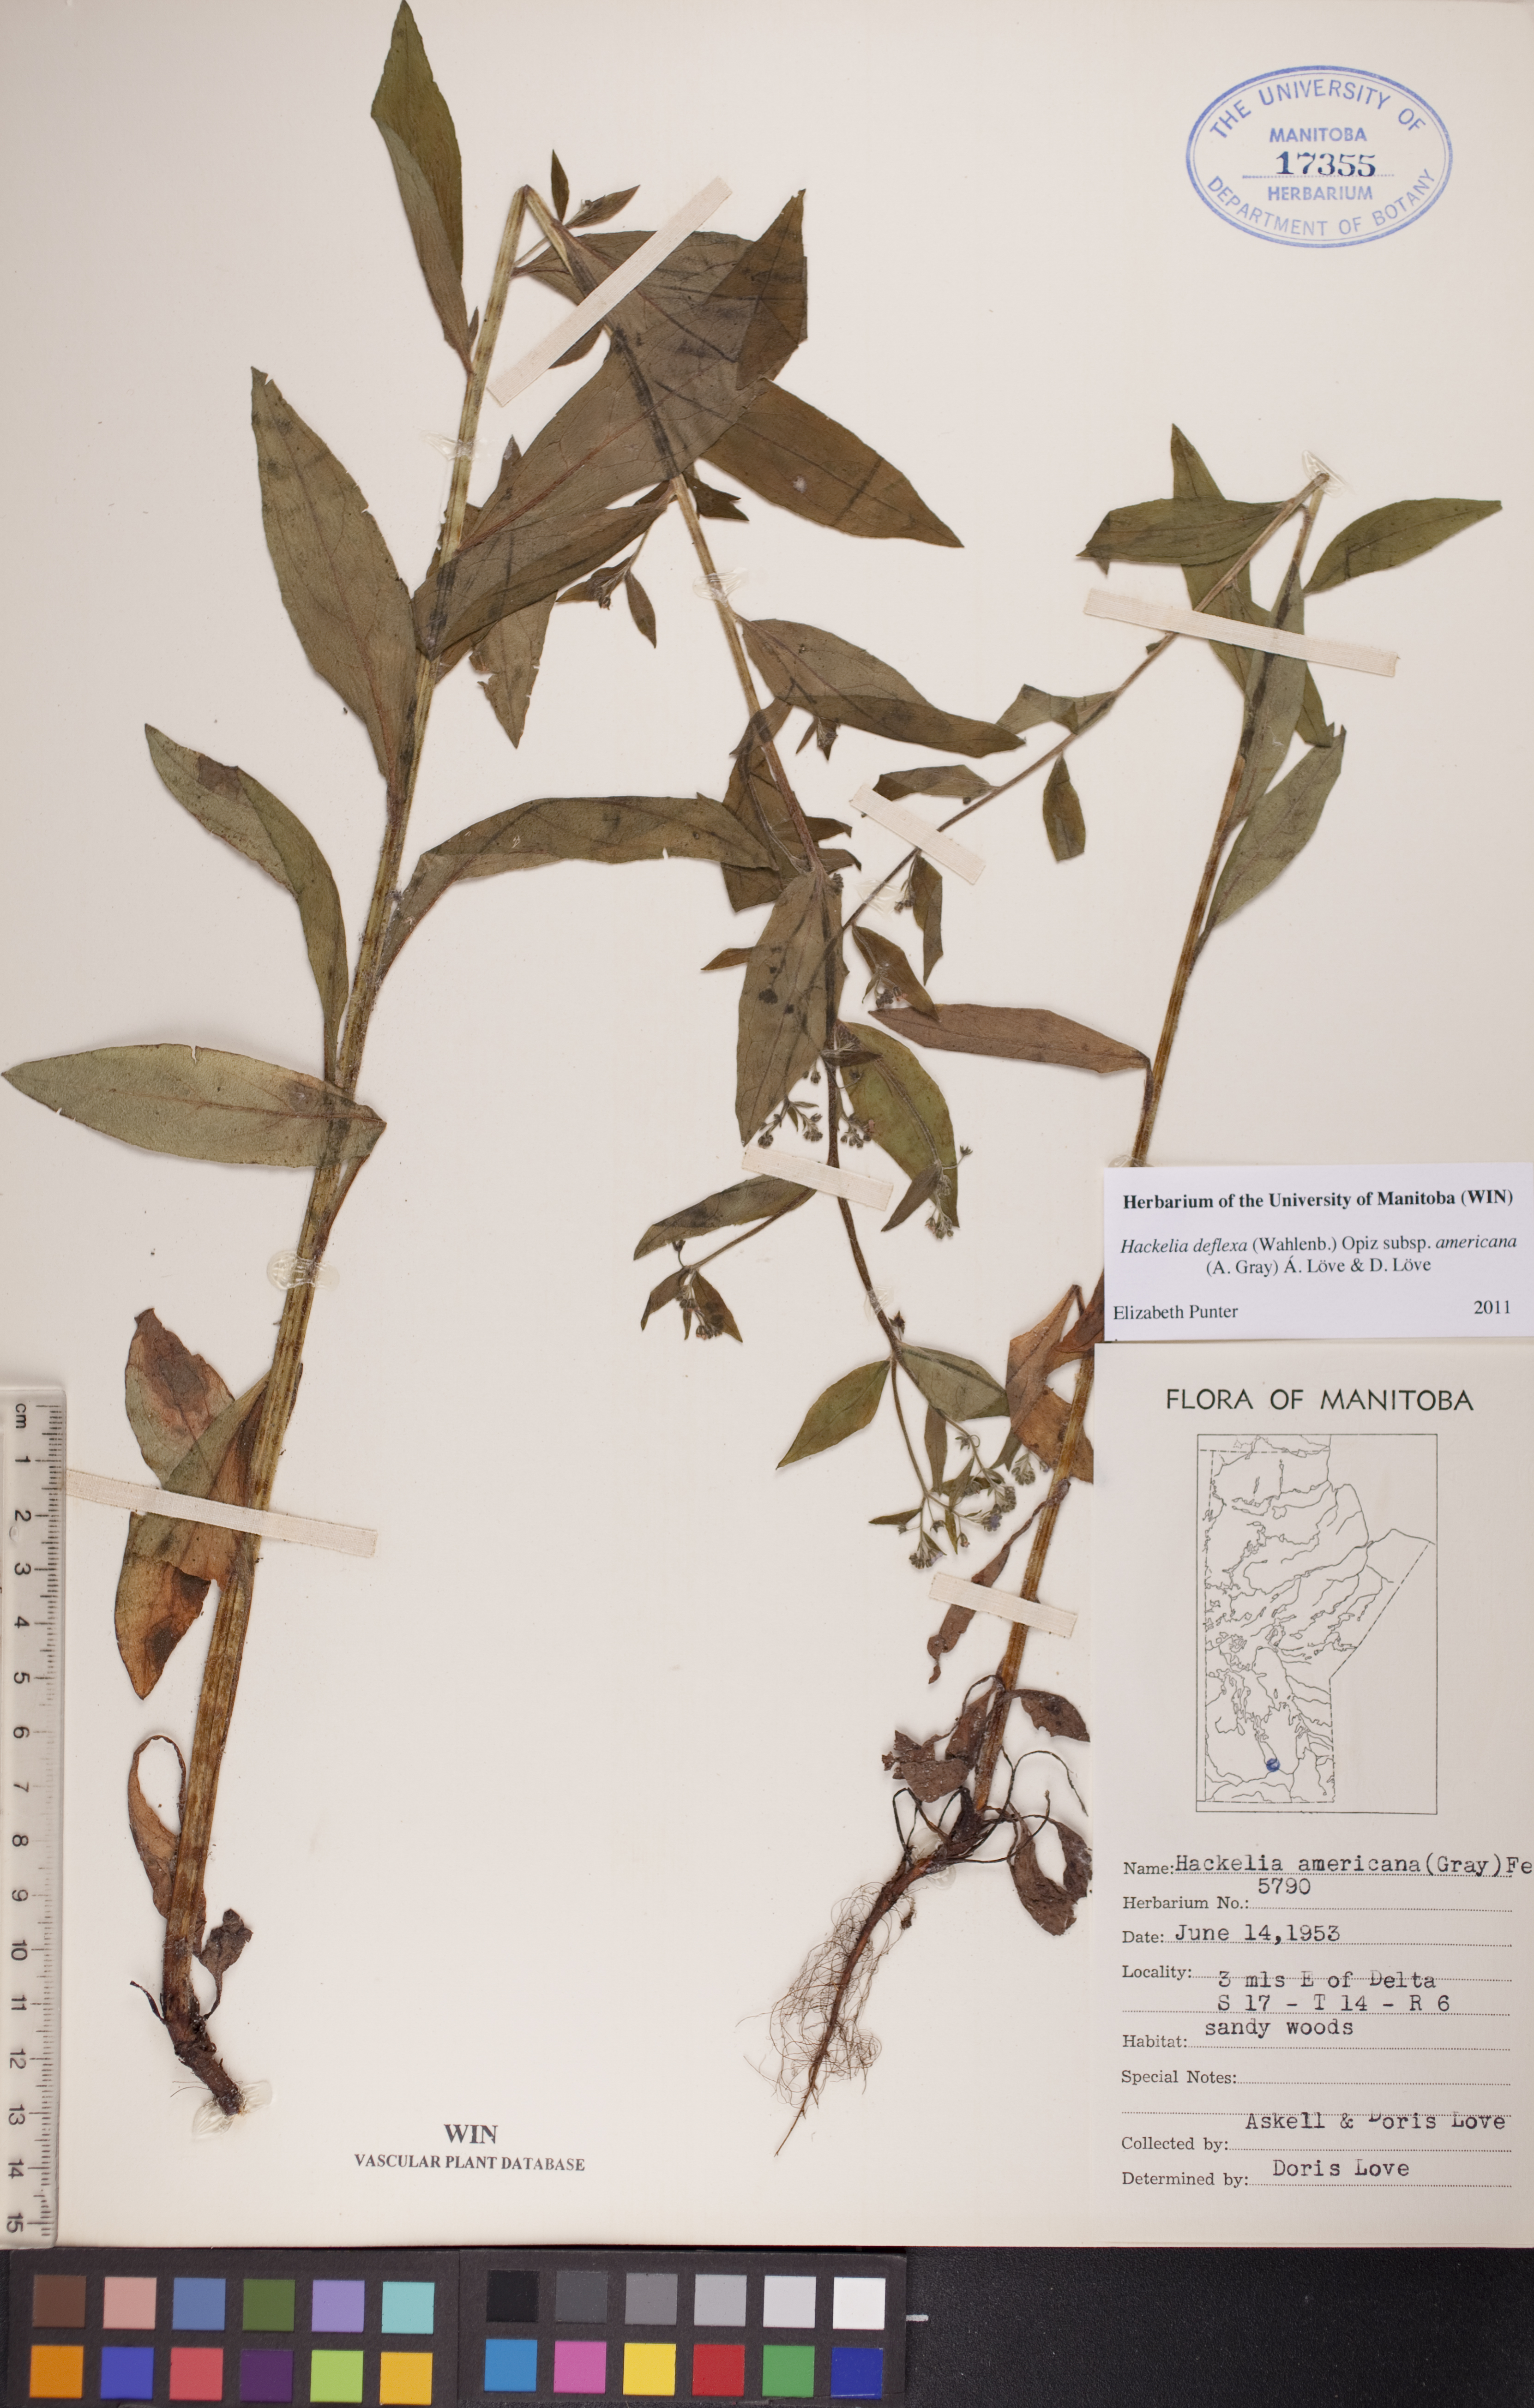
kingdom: Plantae
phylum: Tracheophyta
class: Magnoliopsida
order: Boraginales
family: Boraginaceae
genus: Hackelia
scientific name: Hackelia deflexa
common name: Nodding stickseed
